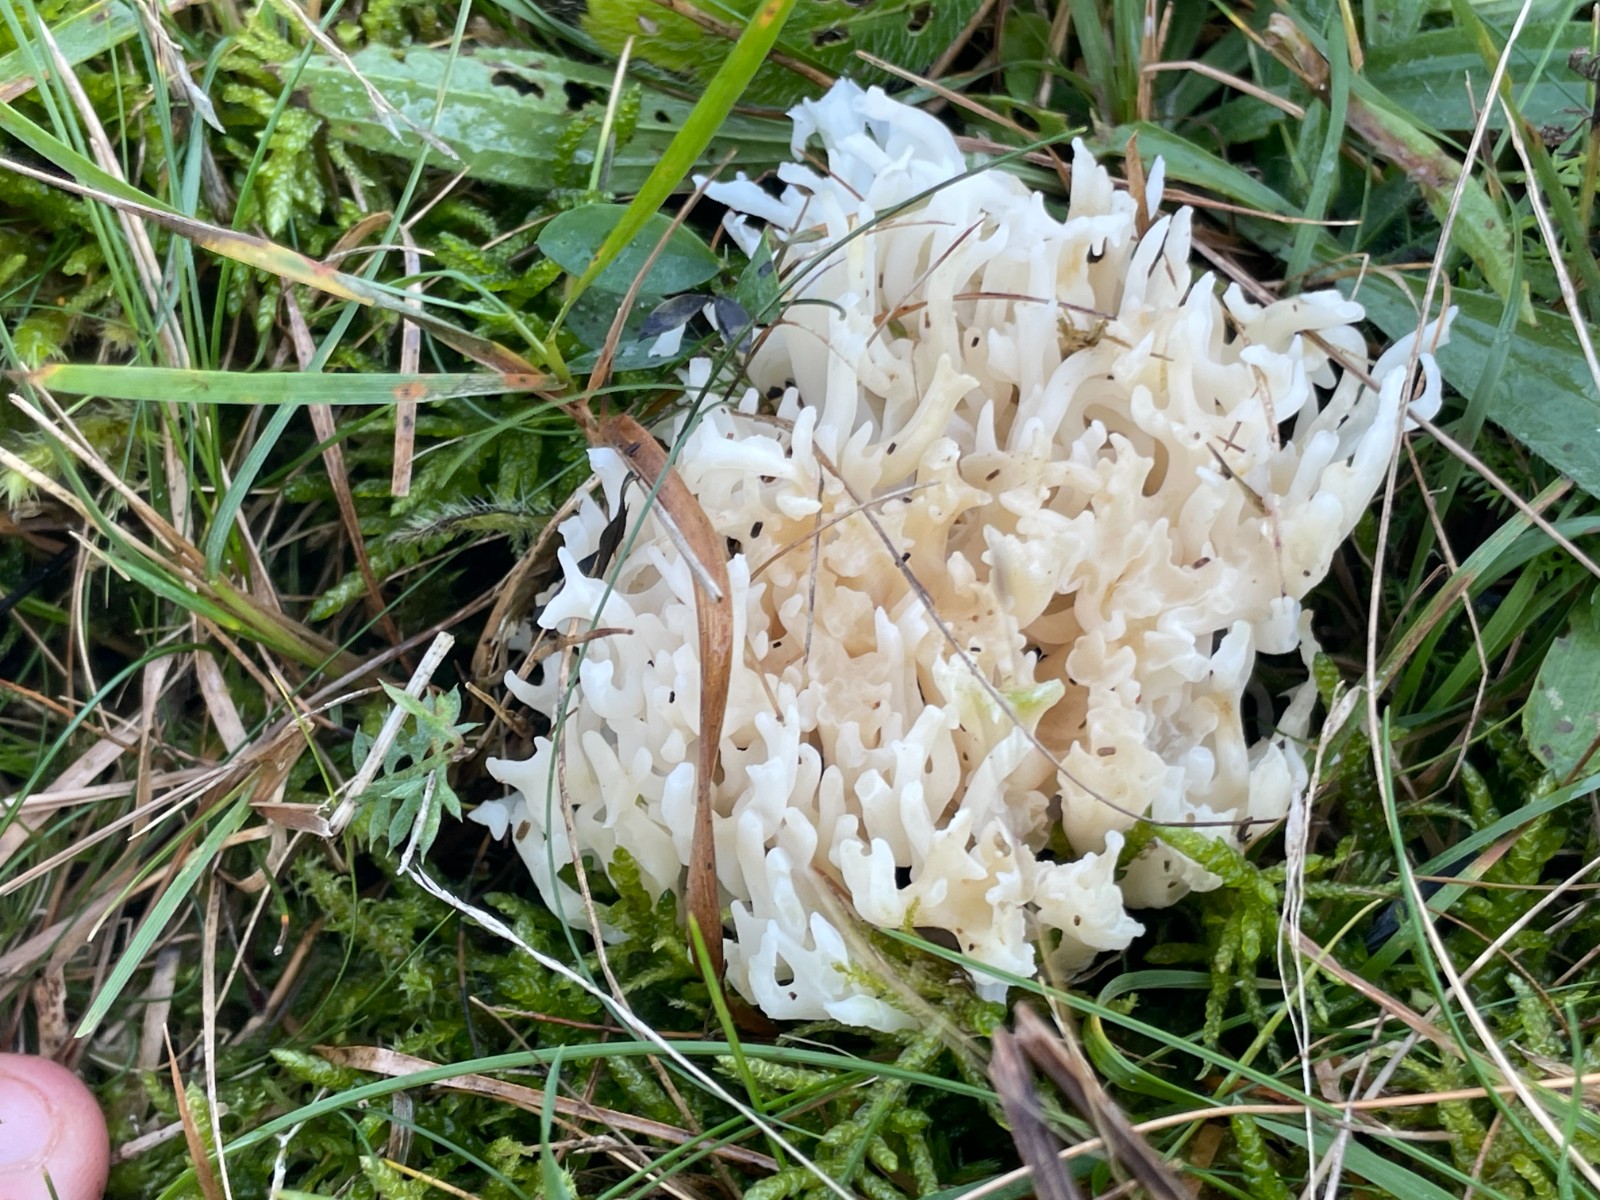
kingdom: Fungi
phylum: Basidiomycota
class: Agaricomycetes
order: Agaricales
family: Clavariaceae
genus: Ramariopsis
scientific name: Ramariopsis robusta
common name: tykgrenet køllesvamp
